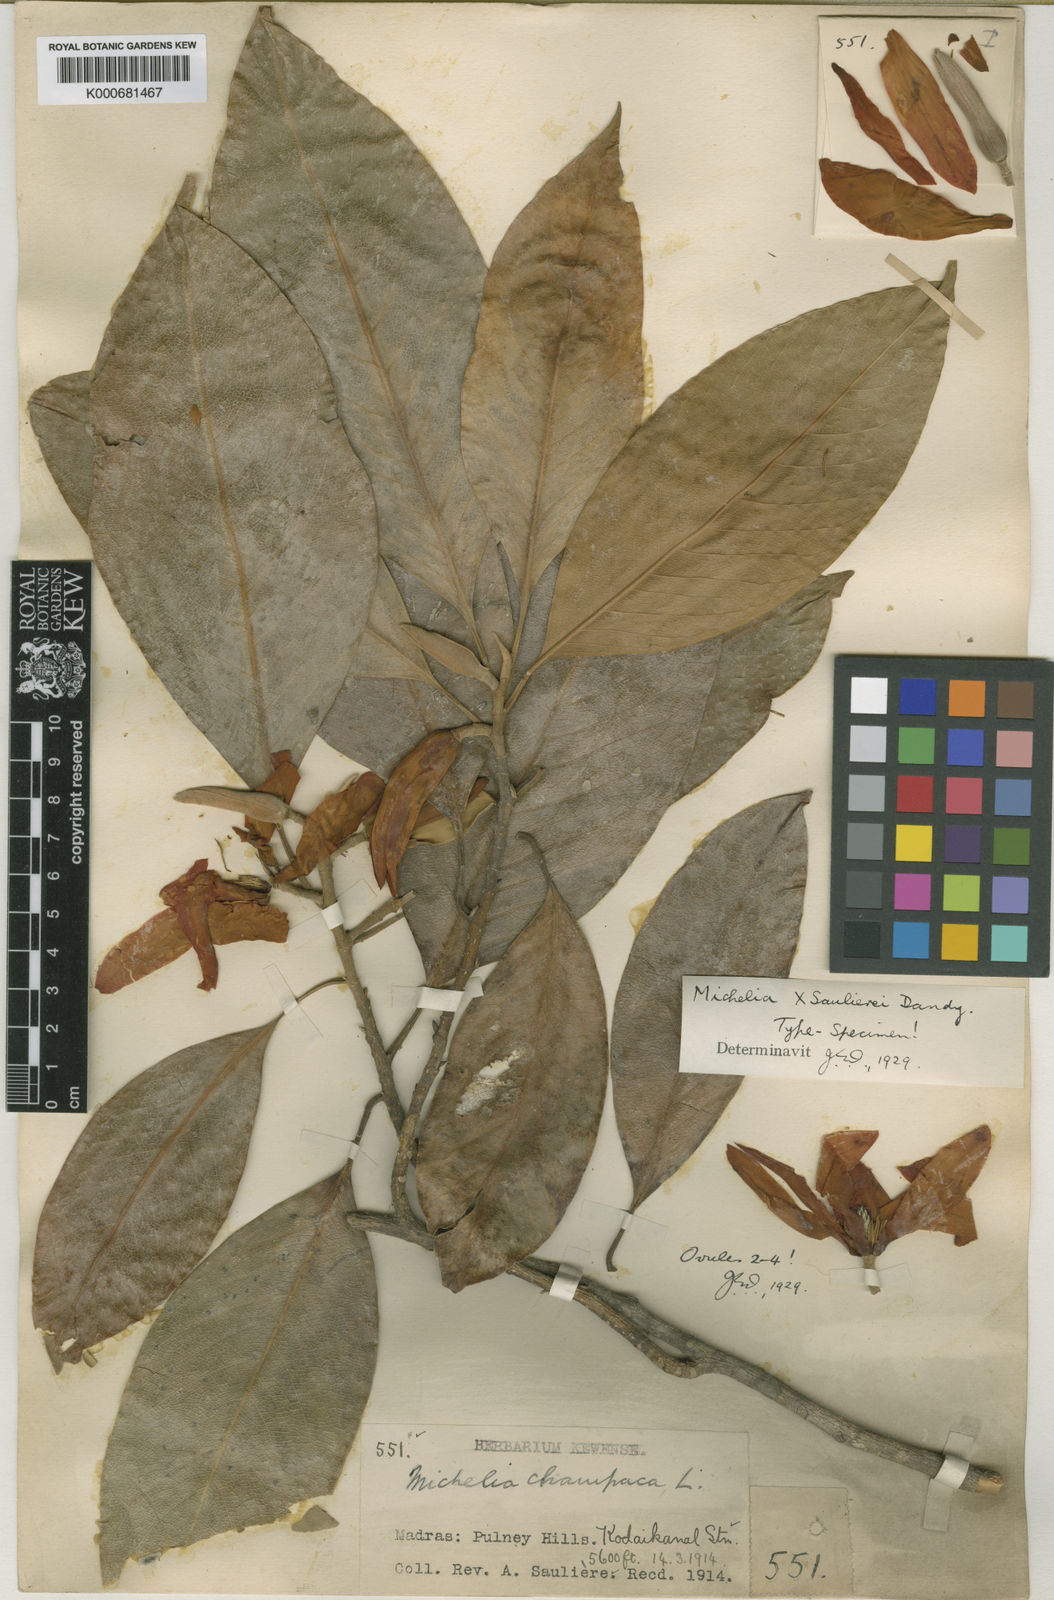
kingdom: Plantae
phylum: Tracheophyta
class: Magnoliopsida
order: Magnoliales
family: Magnoliaceae
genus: Magnolia
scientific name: Magnolia
